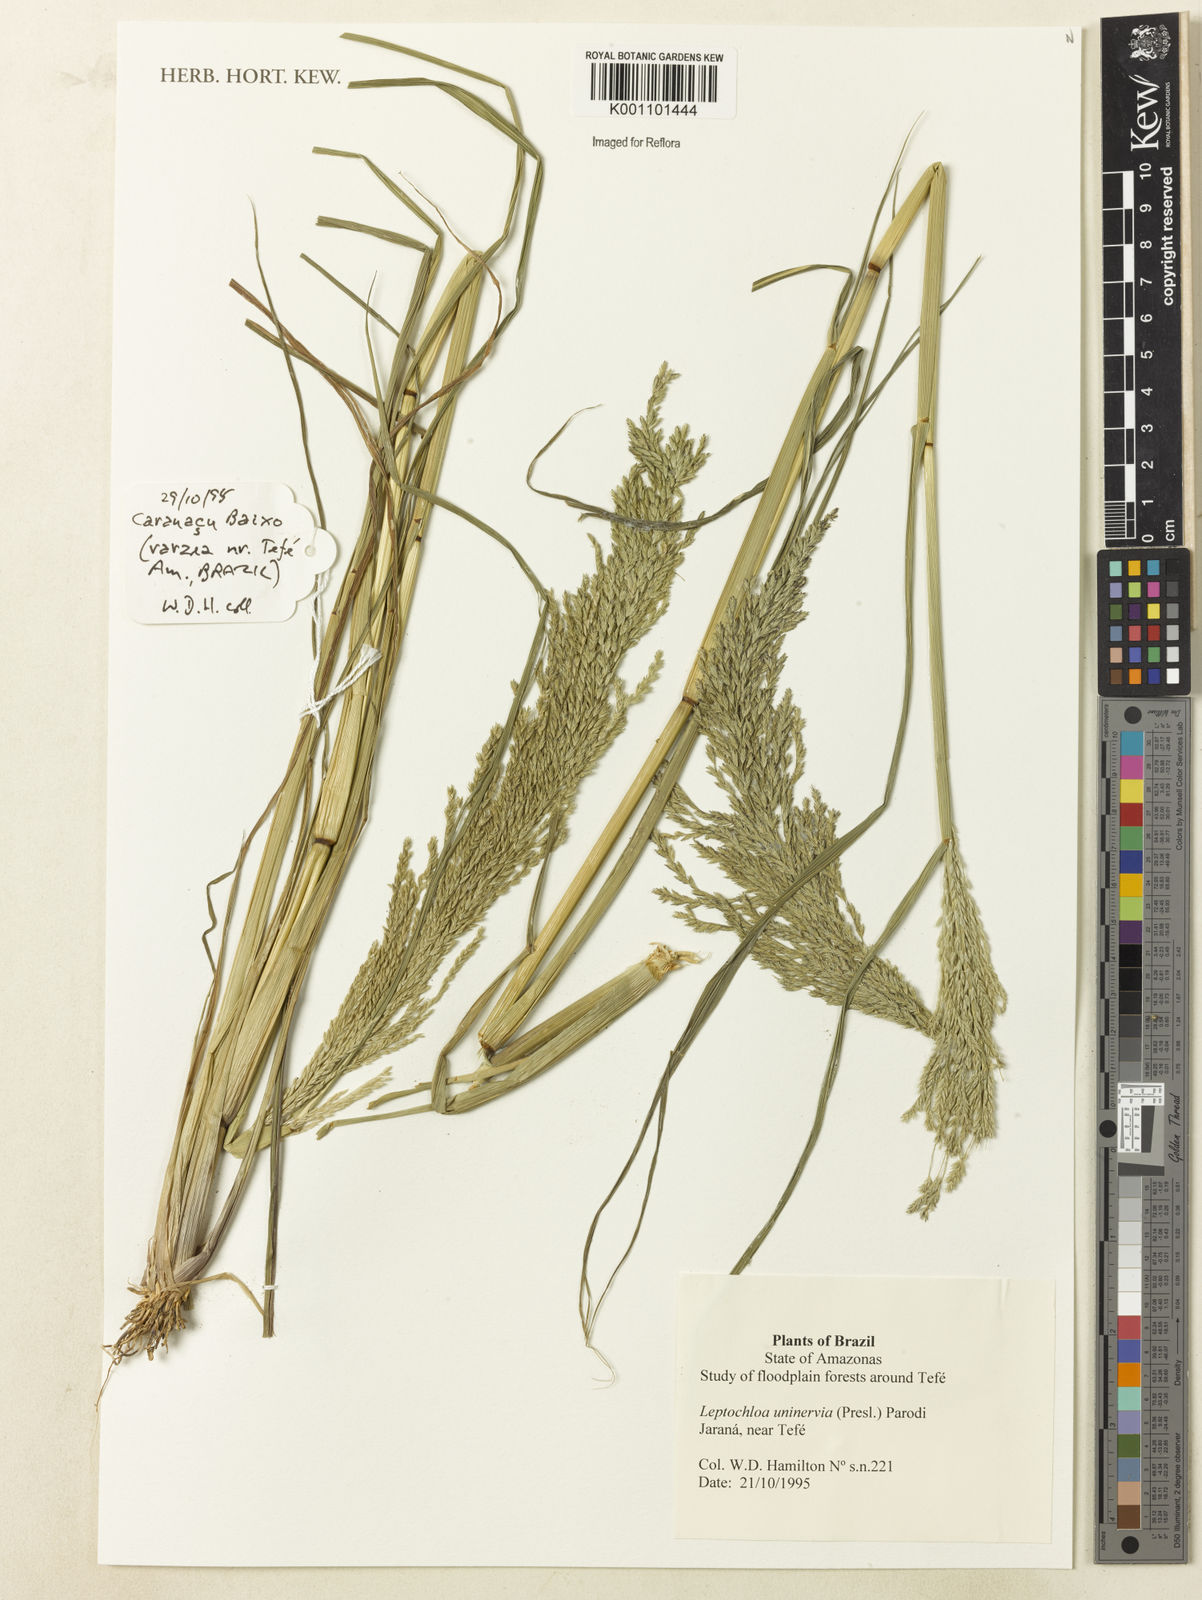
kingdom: Plantae
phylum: Tracheophyta
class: Liliopsida
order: Poales
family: Poaceae
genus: Diplachne
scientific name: Diplachne fusca
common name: Brown beetle grass
